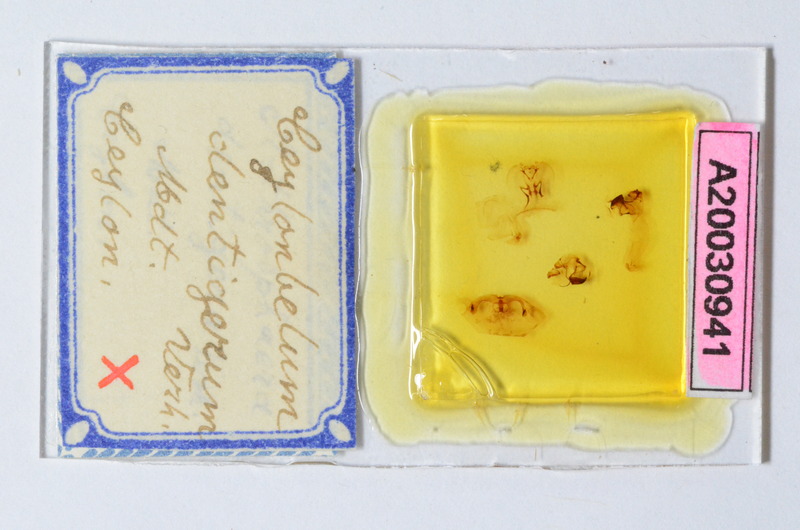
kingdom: Animalia
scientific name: Animalia
